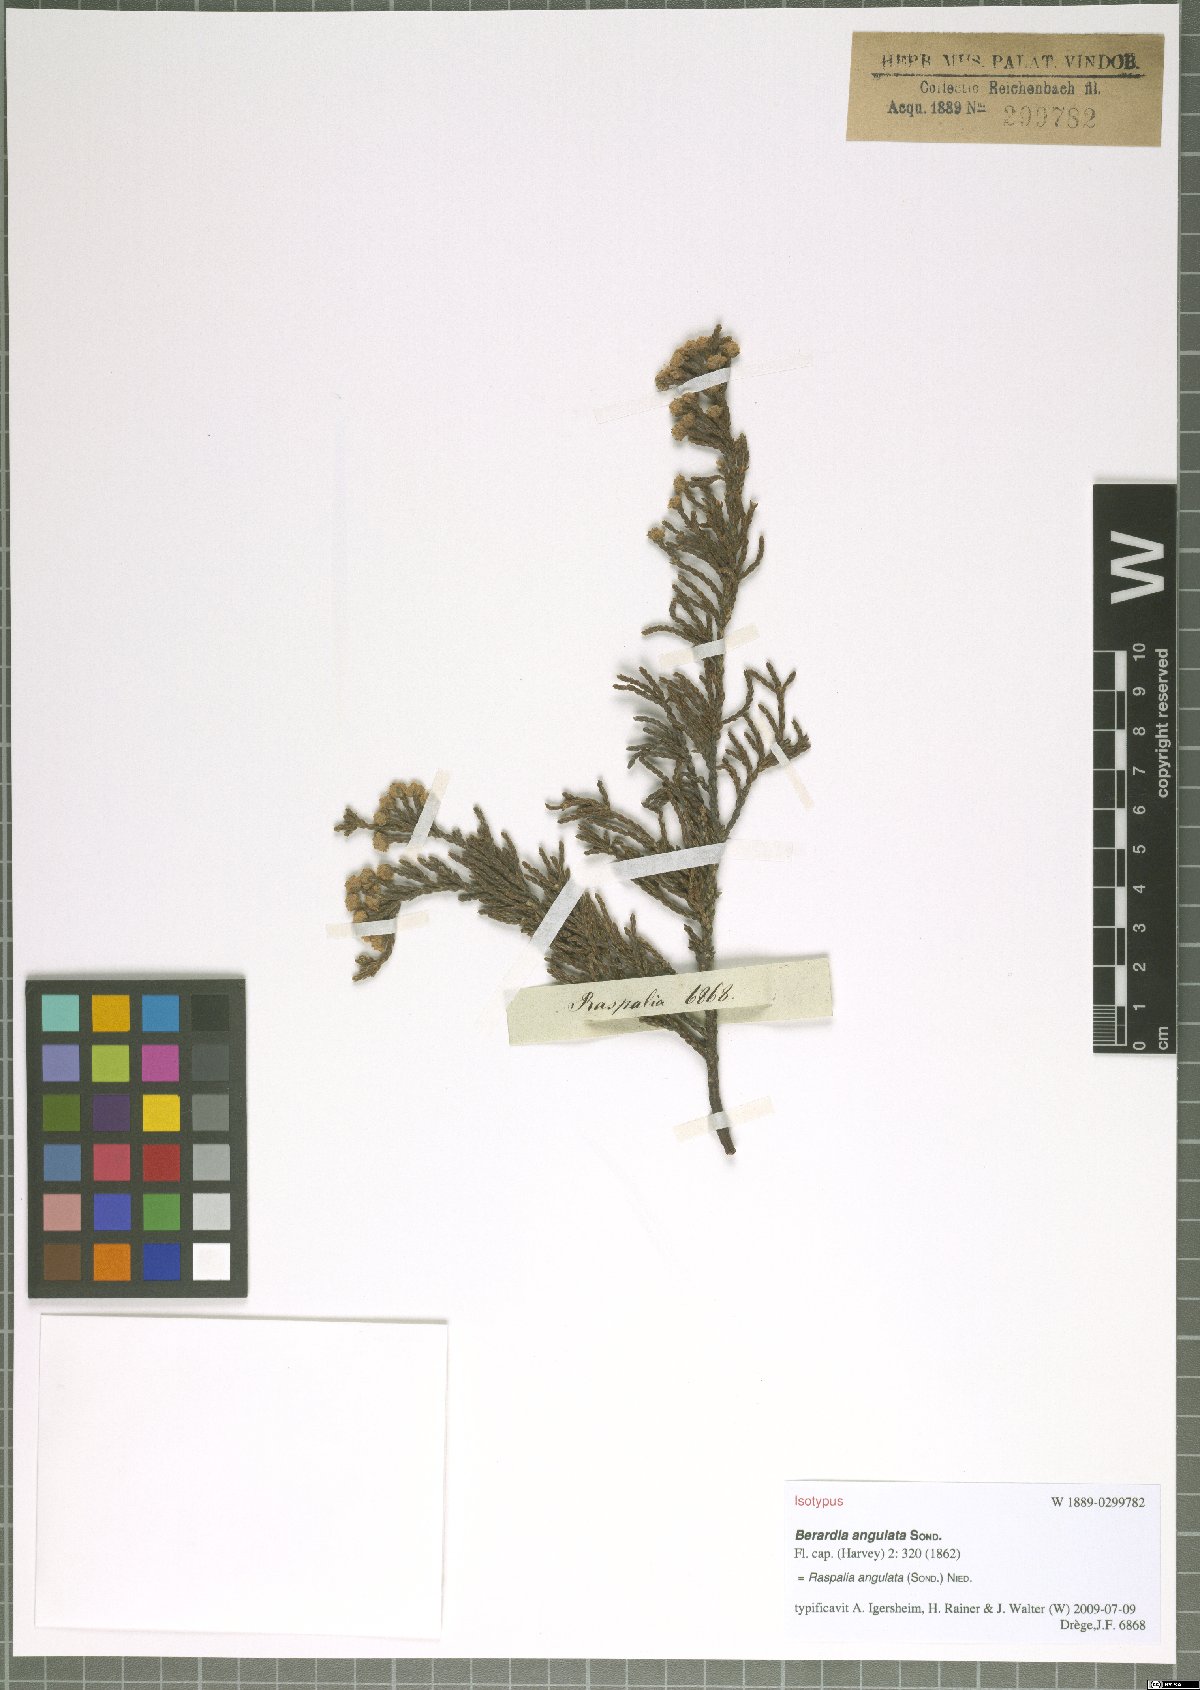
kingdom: Plantae
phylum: Tracheophyta
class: Magnoliopsida
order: Bruniales
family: Bruniaceae
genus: Brunia
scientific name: Brunia angulata
